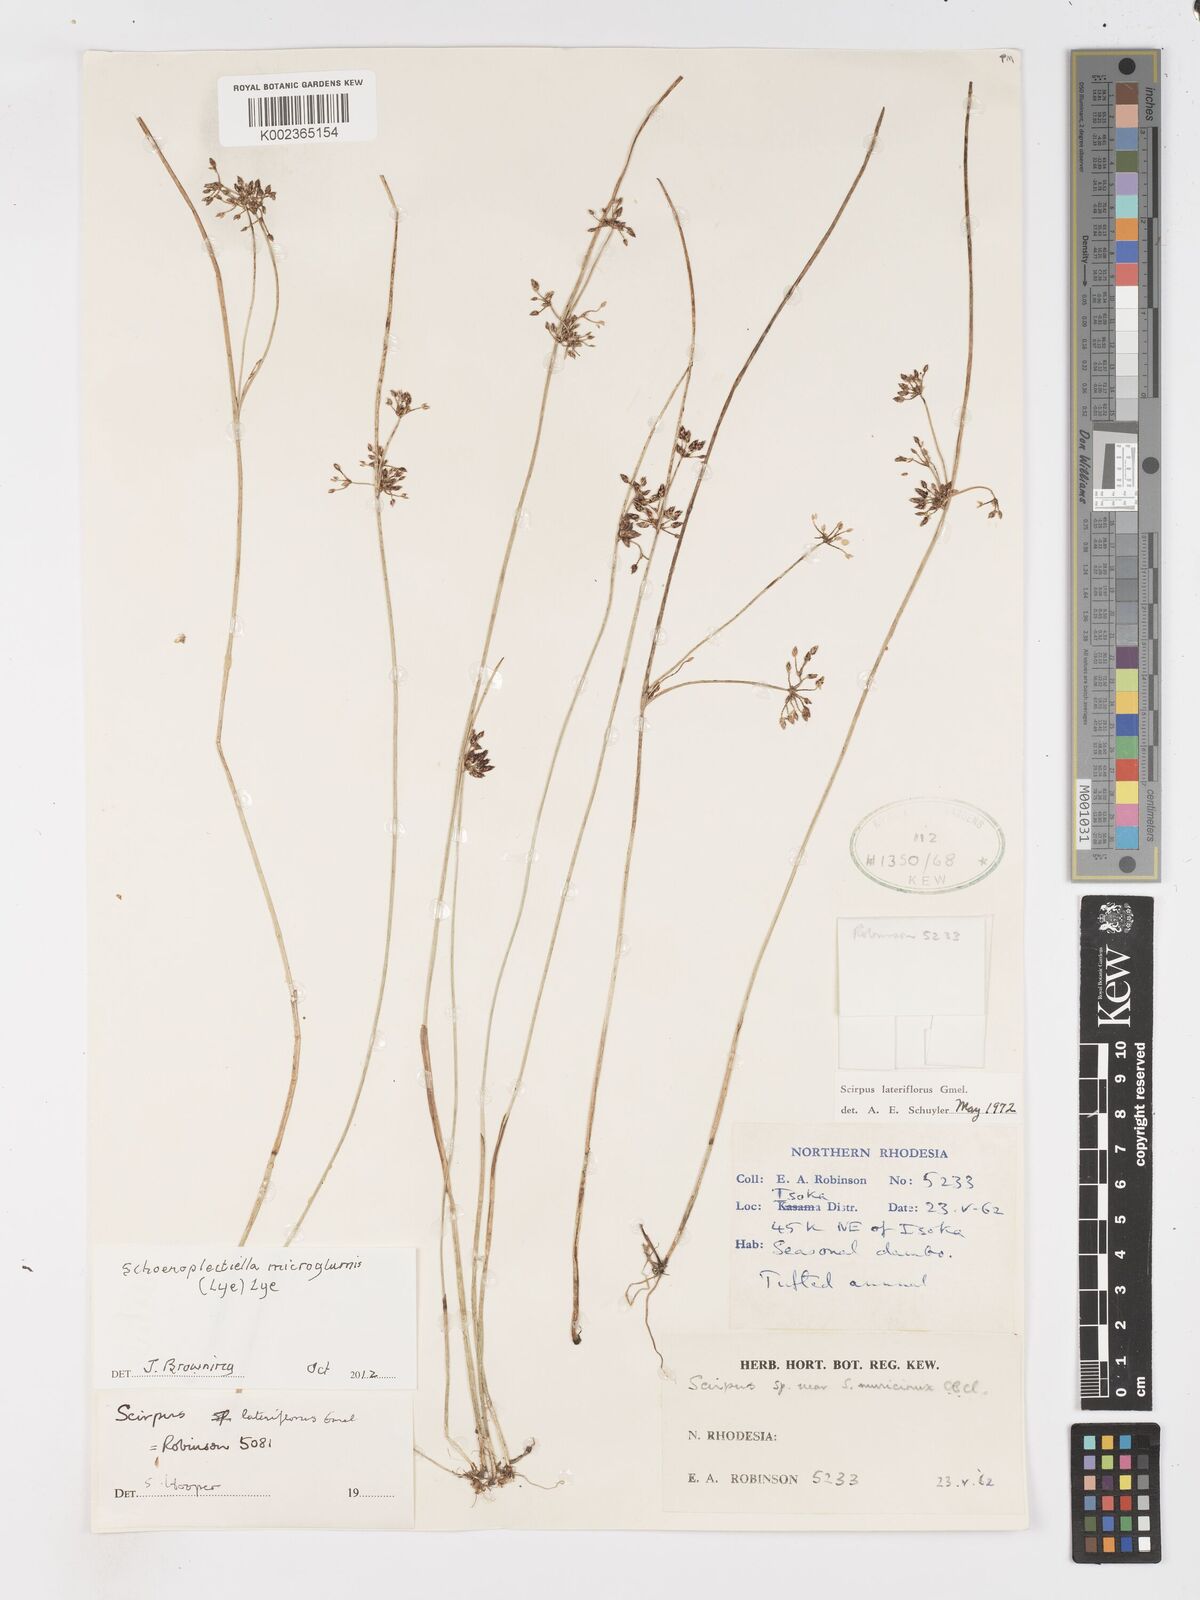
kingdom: Plantae
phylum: Tracheophyta
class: Liliopsida
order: Poales
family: Cyperaceae
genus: Schoenoplectiella
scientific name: Schoenoplectiella microglumis
